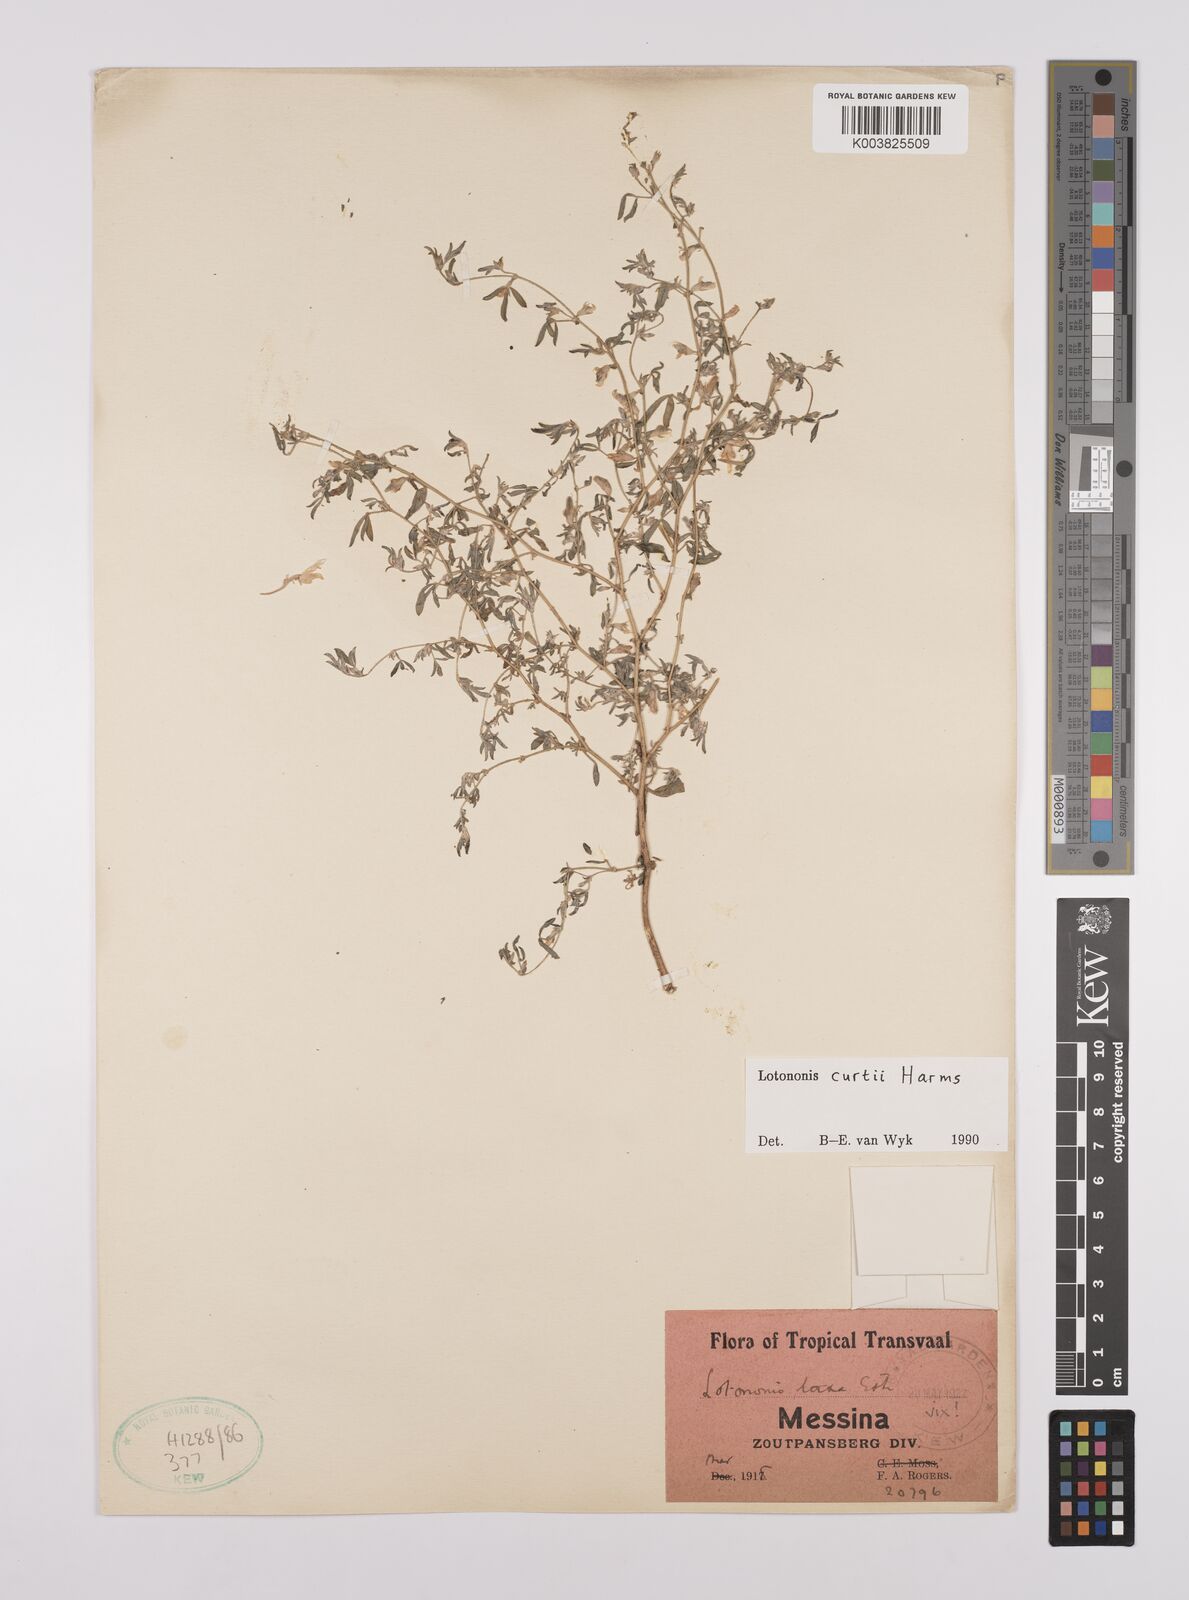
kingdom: Plantae
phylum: Tracheophyta
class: Magnoliopsida
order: Fabales
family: Fabaceae
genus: Lotononis
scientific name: Lotononis curtii
